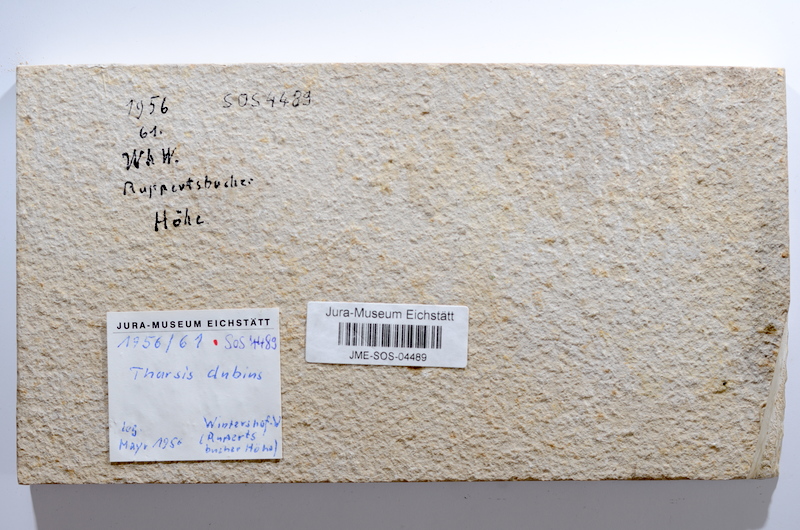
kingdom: Animalia
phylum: Chordata
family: Ascalaboidae
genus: Tharsis
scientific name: Tharsis dubius
